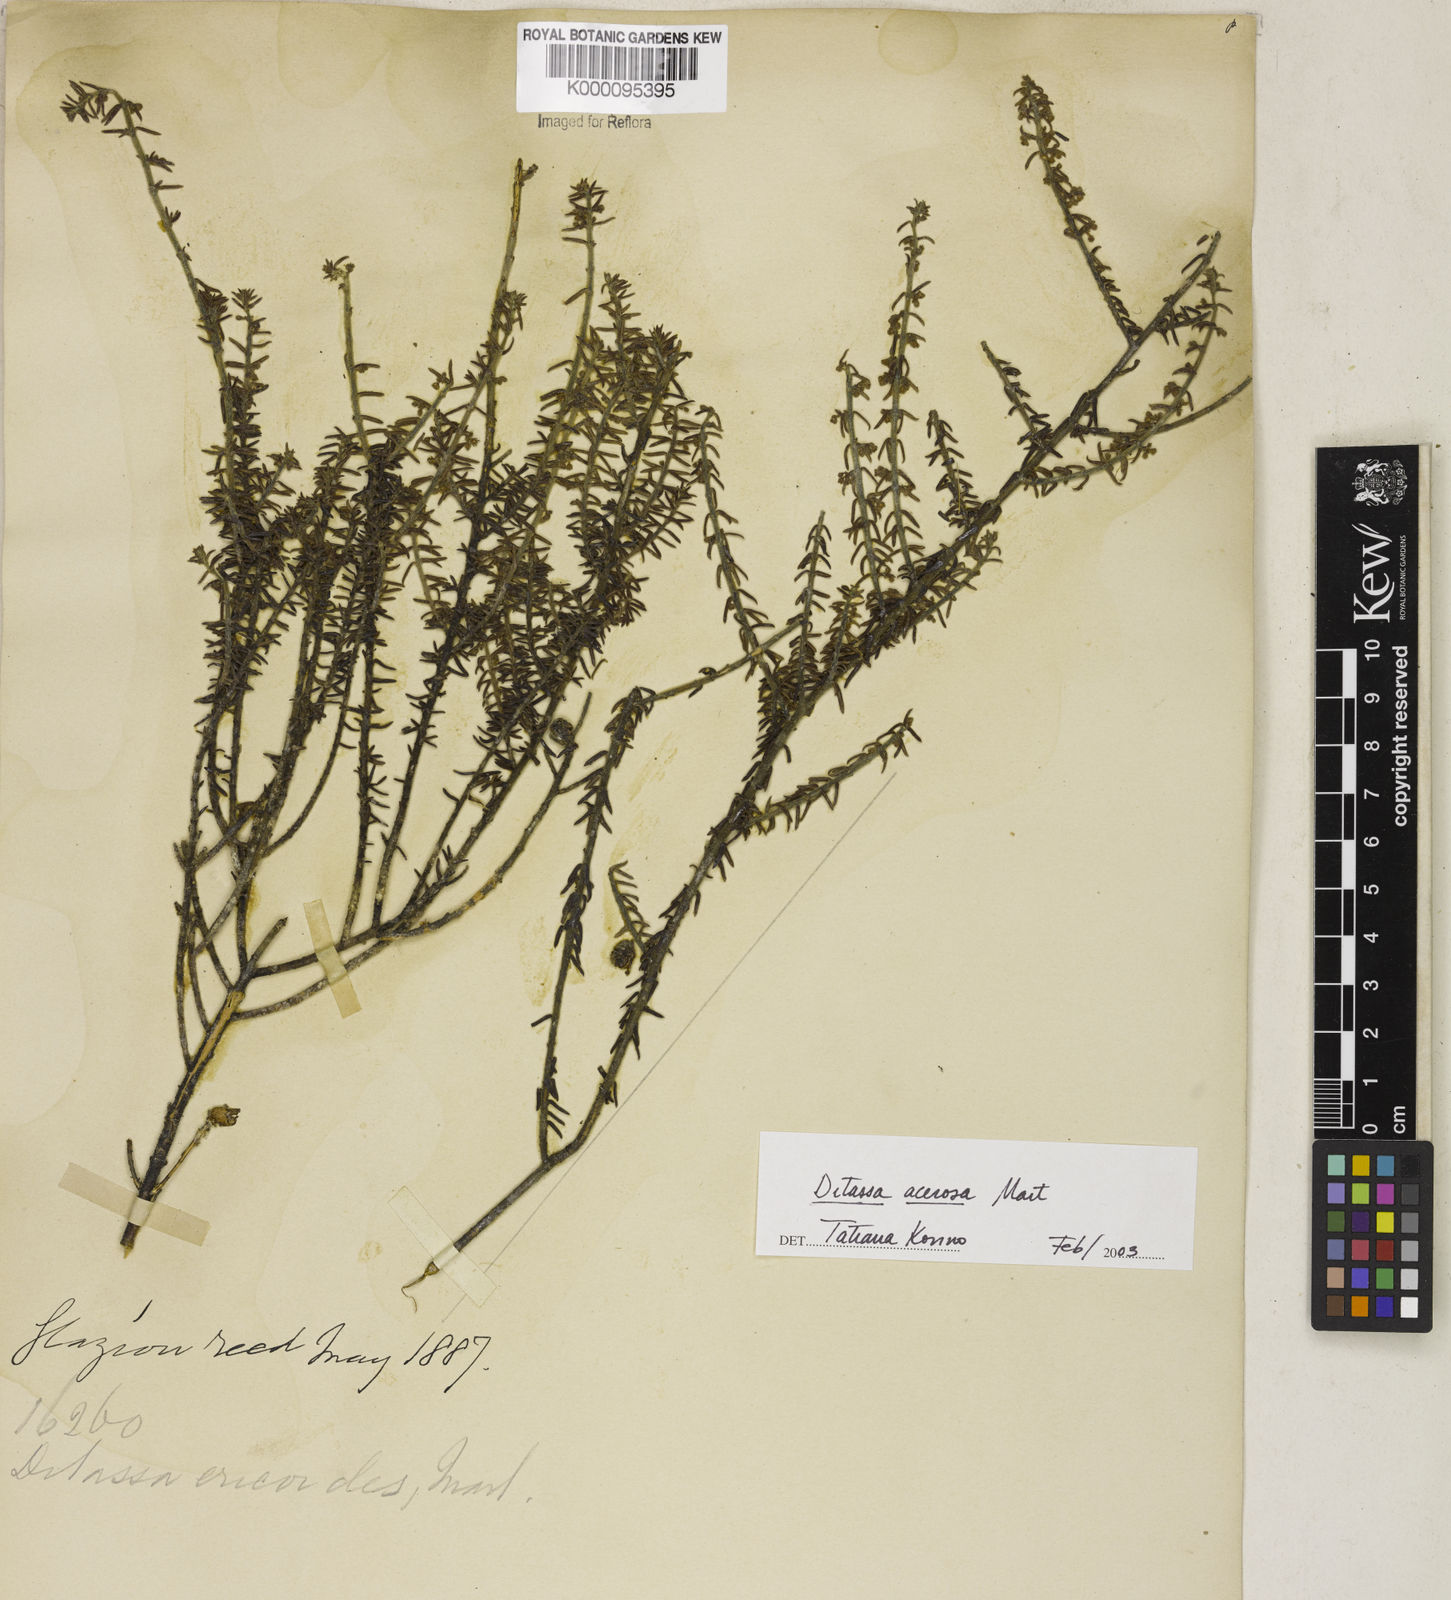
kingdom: Plantae
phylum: Tracheophyta
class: Magnoliopsida
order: Gentianales
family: Apocynaceae
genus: Minaria
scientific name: Minaria acerosa
